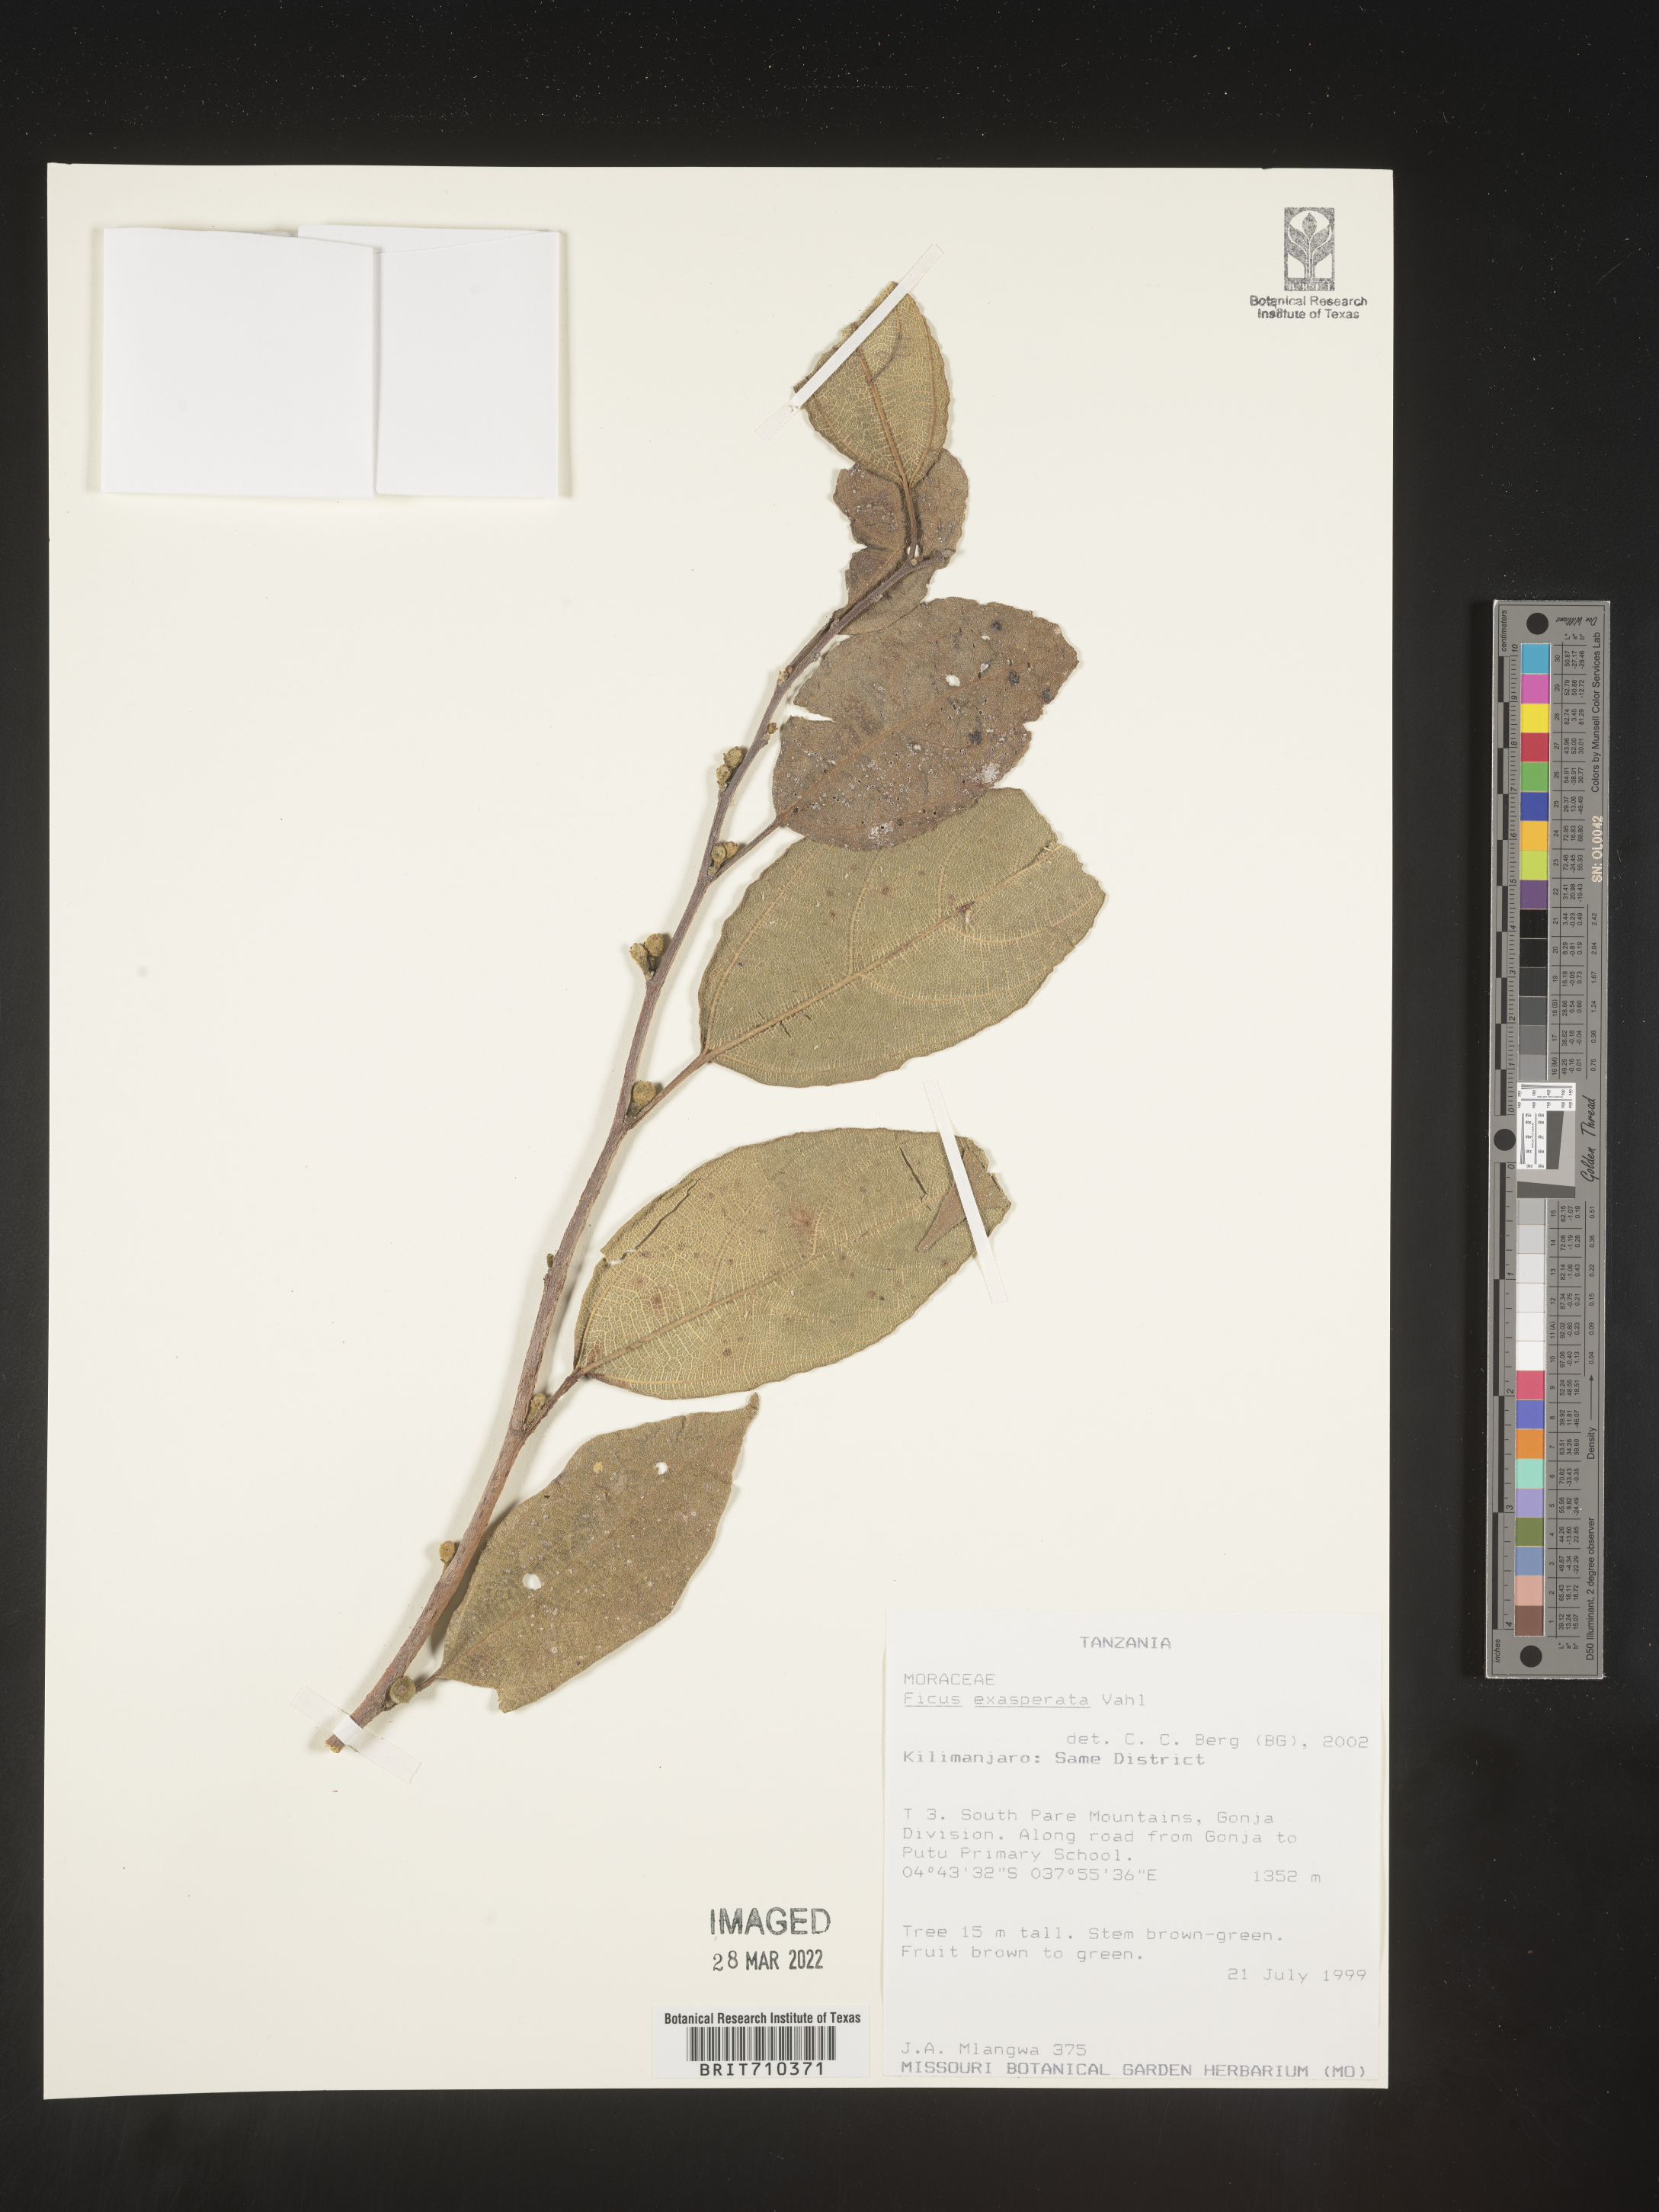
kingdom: Plantae
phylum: Tracheophyta
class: Magnoliopsida
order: Rosales
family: Moraceae
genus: Ficus
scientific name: Ficus
